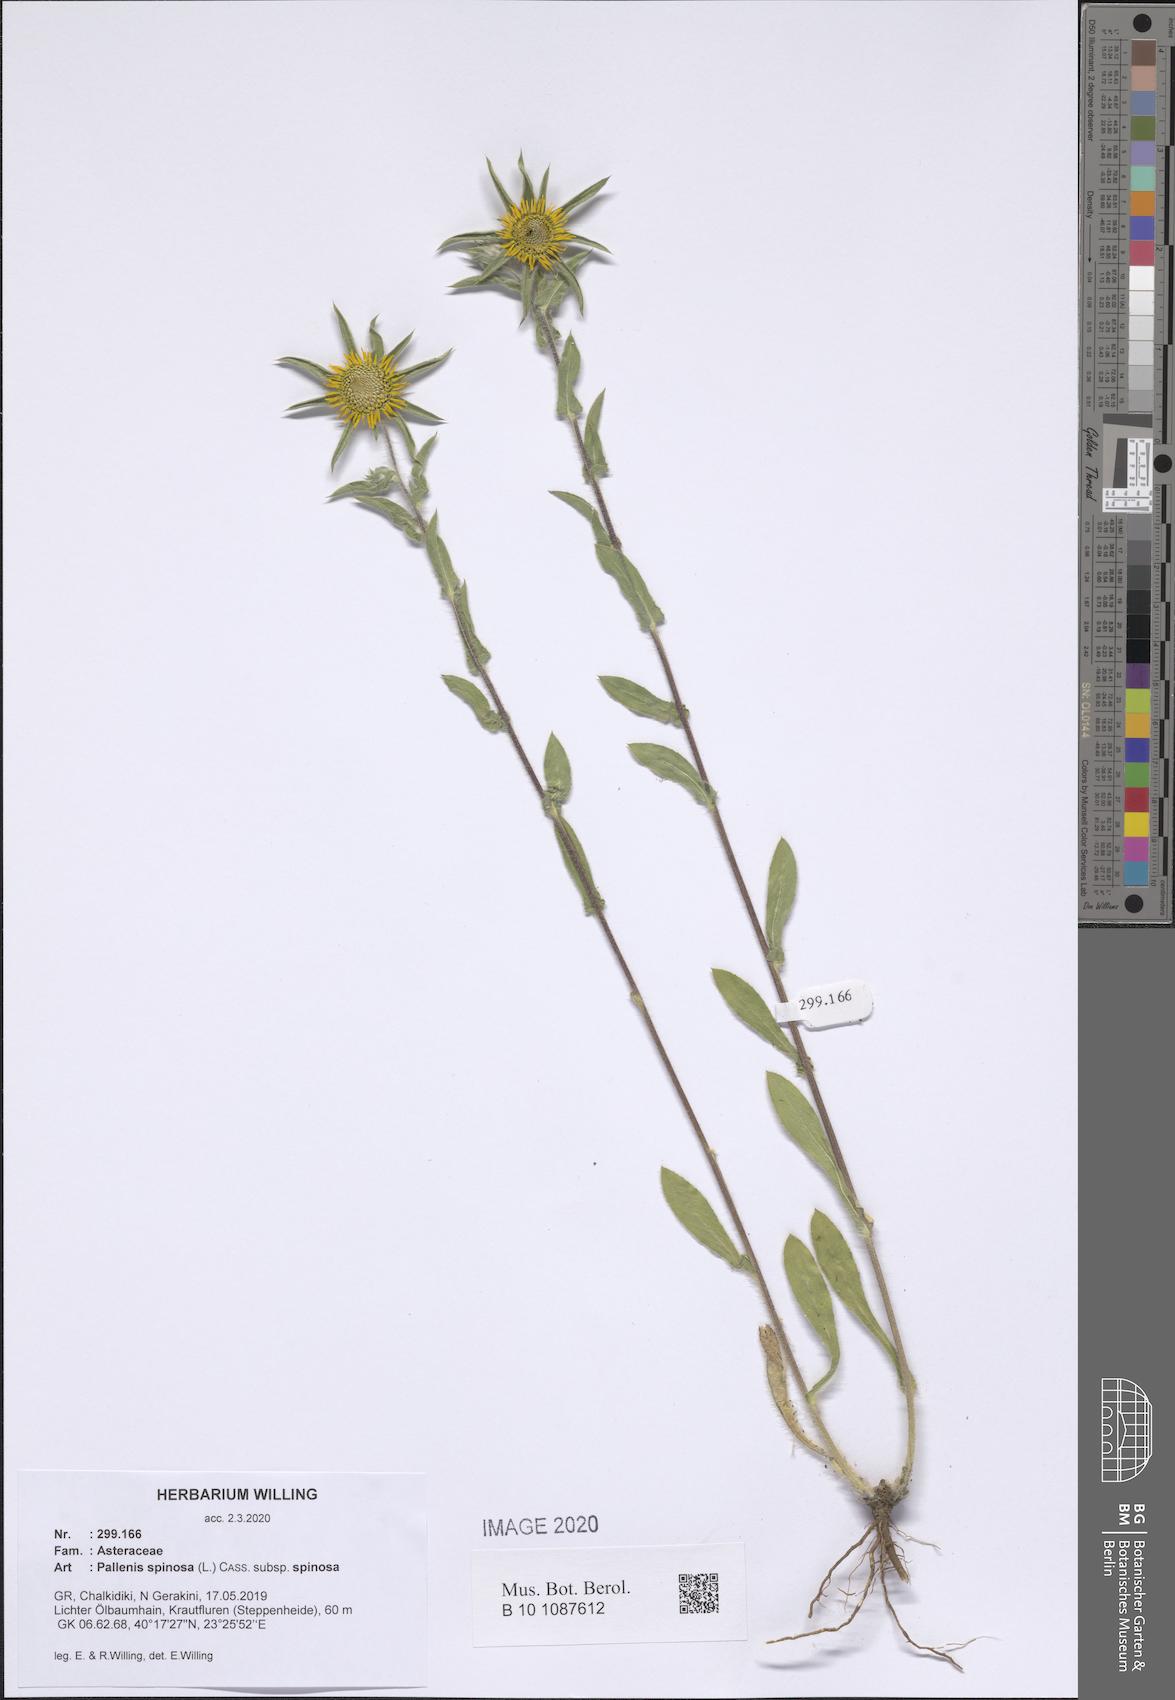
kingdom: Plantae
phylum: Tracheophyta
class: Magnoliopsida
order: Asterales
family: Asteraceae
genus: Pallenis
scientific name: Pallenis spinosa
